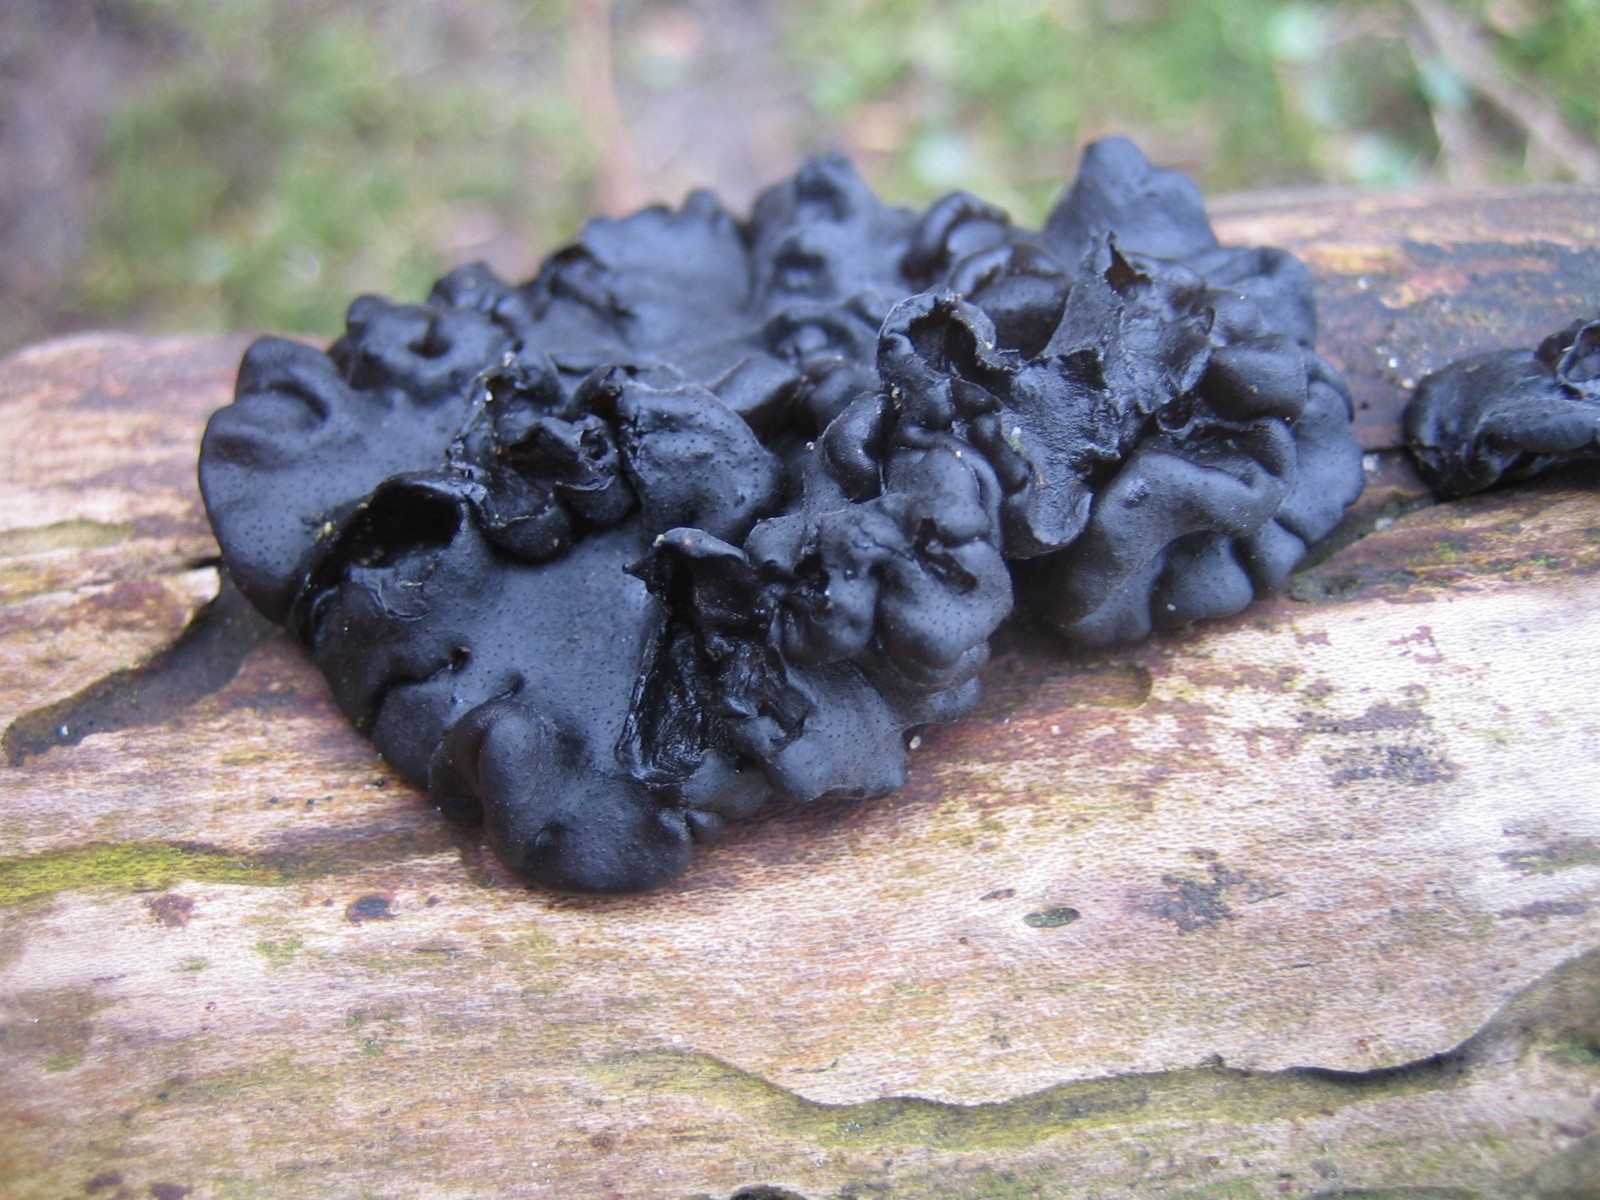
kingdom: Fungi
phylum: Basidiomycota
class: Agaricomycetes
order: Auriculariales
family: Auriculariaceae
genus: Exidia
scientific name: Exidia nigricans
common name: almindelig bævretop
